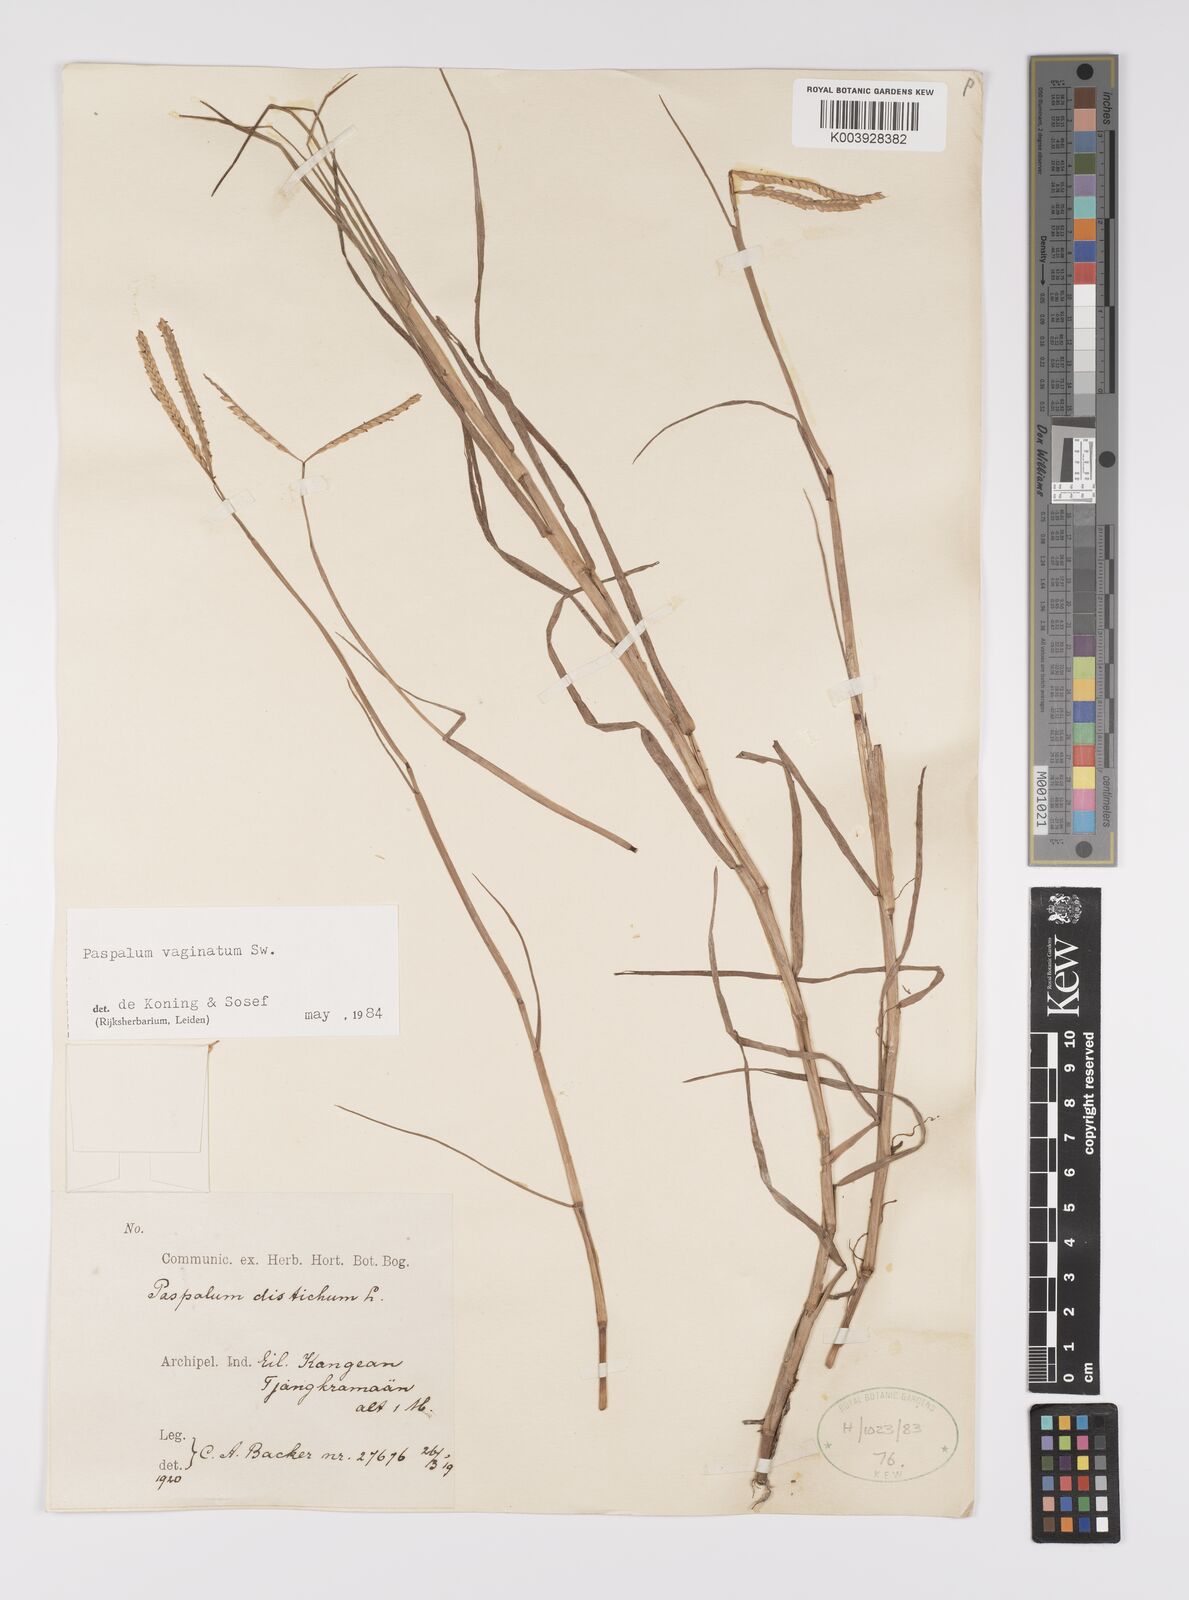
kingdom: Plantae
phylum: Tracheophyta
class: Liliopsida
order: Poales
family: Poaceae
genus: Paspalum
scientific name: Paspalum vaginatum
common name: Seashore paspalum
